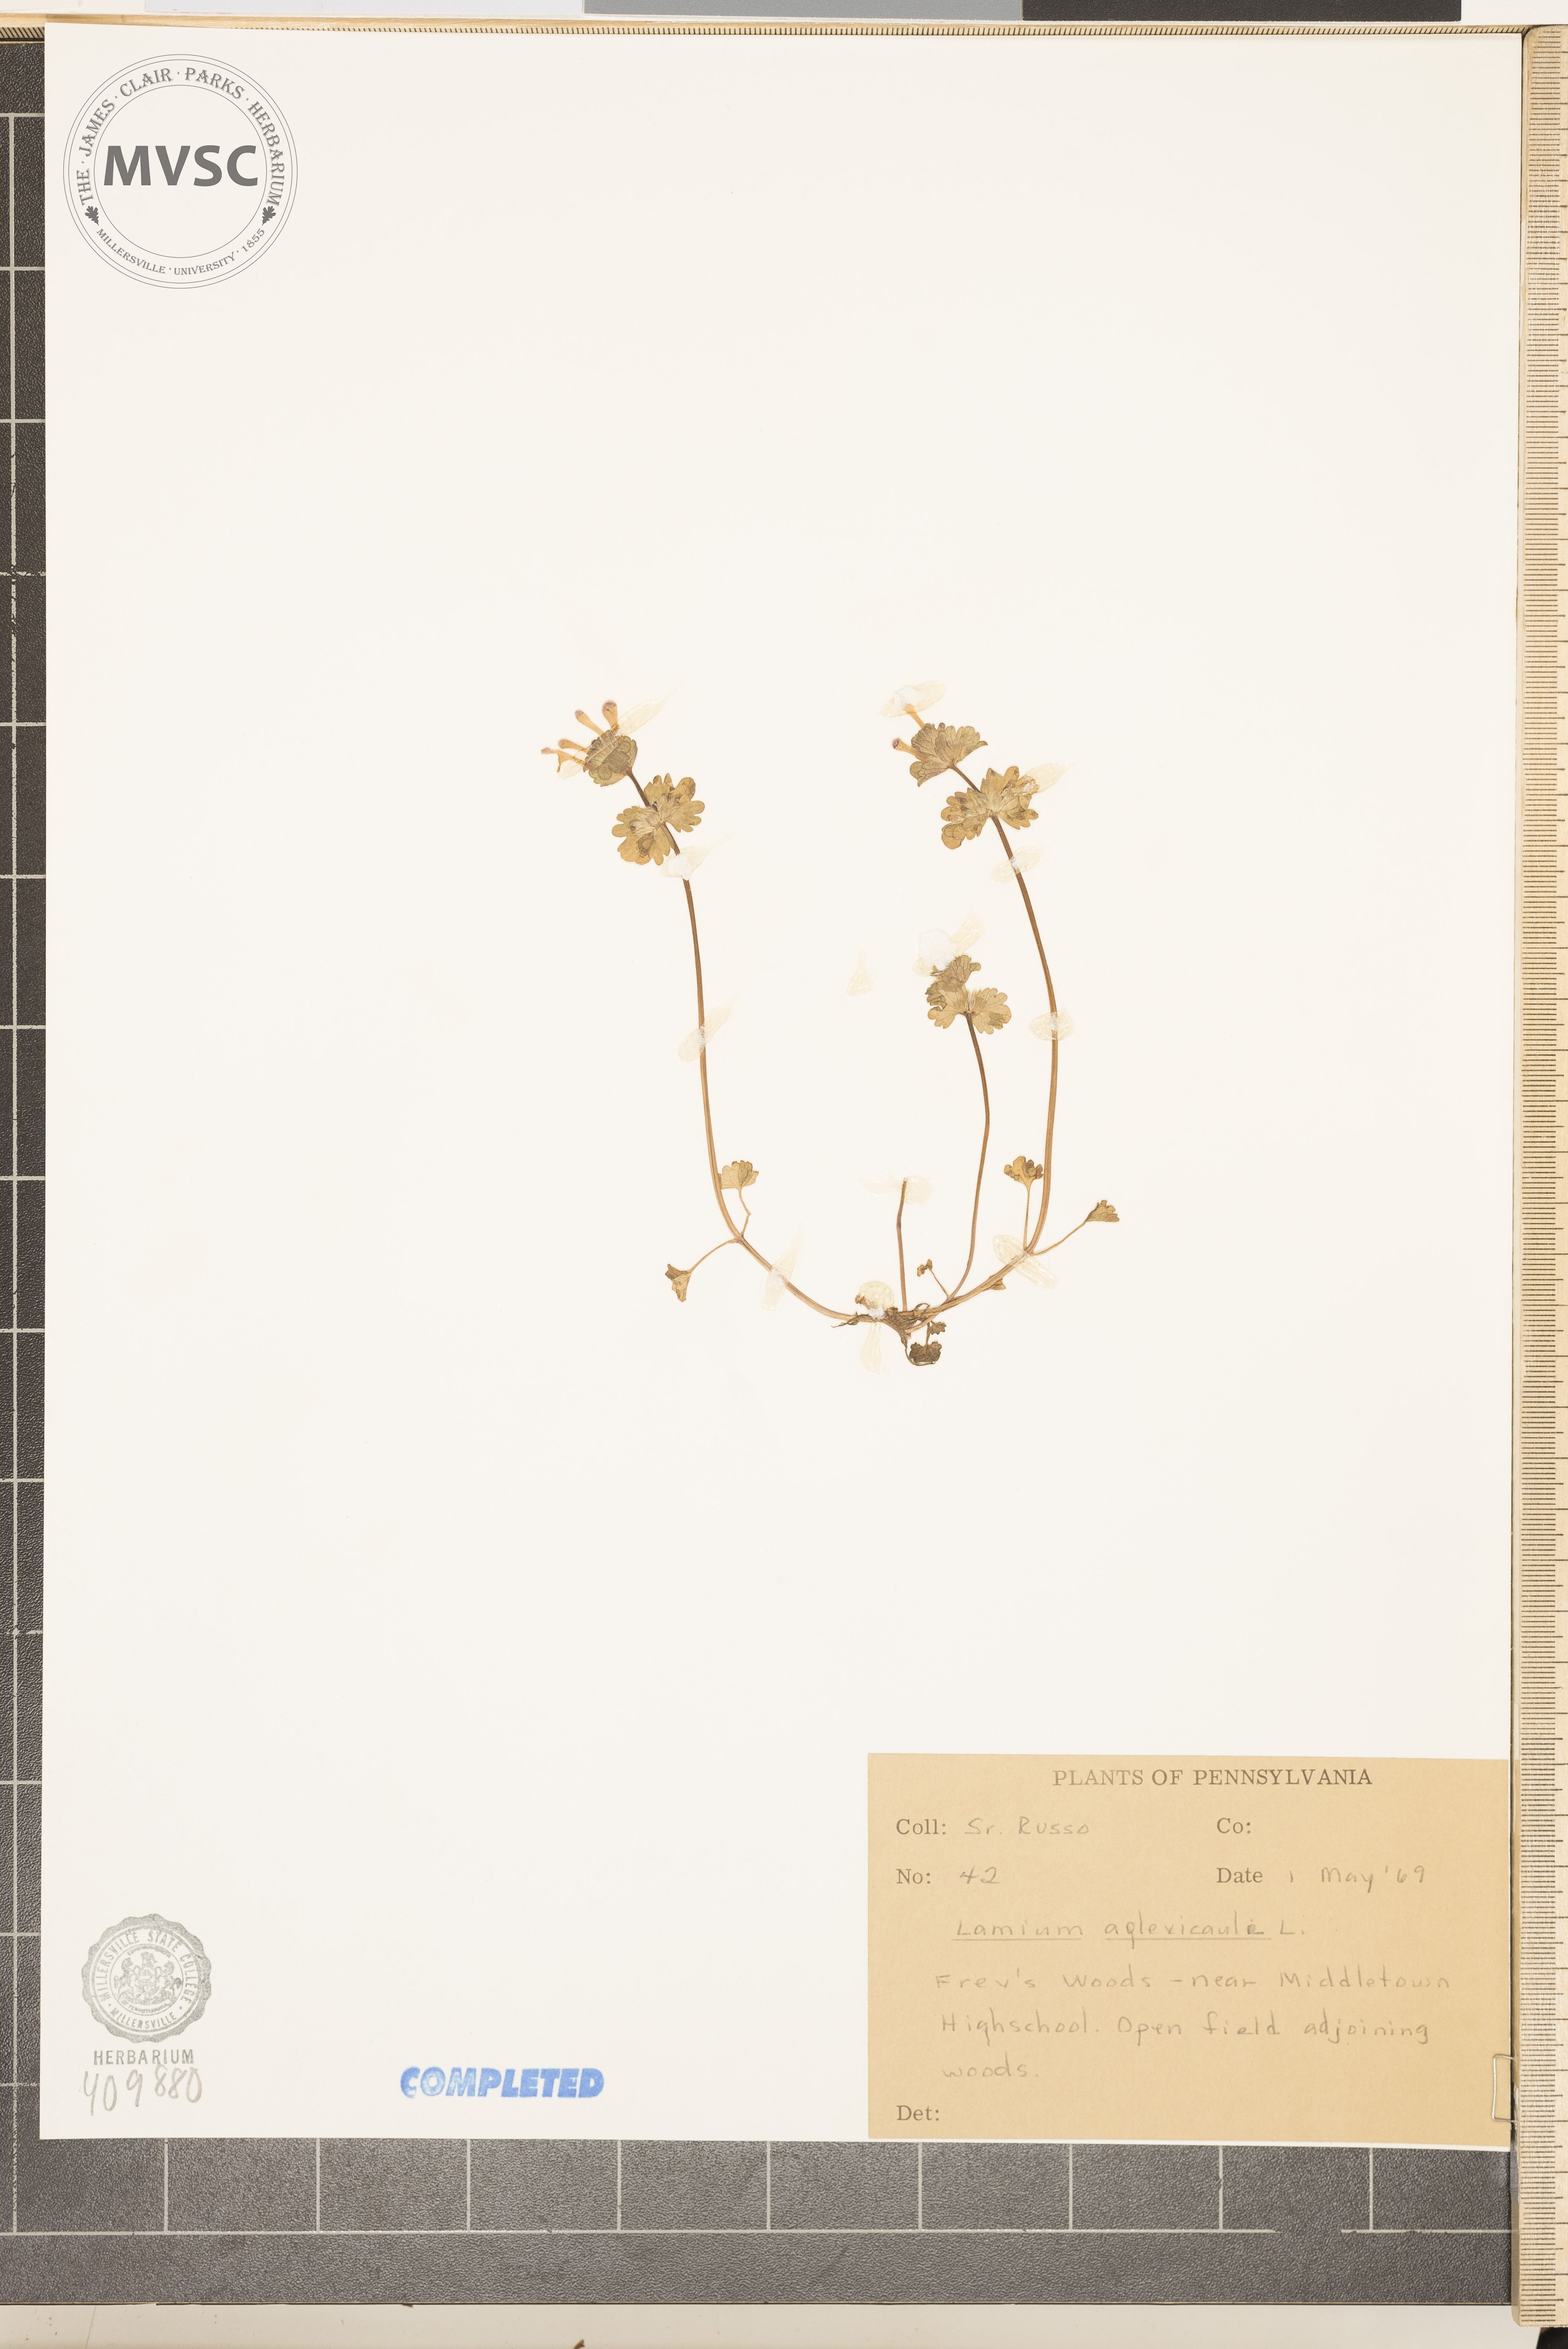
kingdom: Plantae
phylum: Tracheophyta
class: Magnoliopsida
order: Lamiales
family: Lamiaceae
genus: Lamium
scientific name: Lamium amplexicaule
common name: henbit
